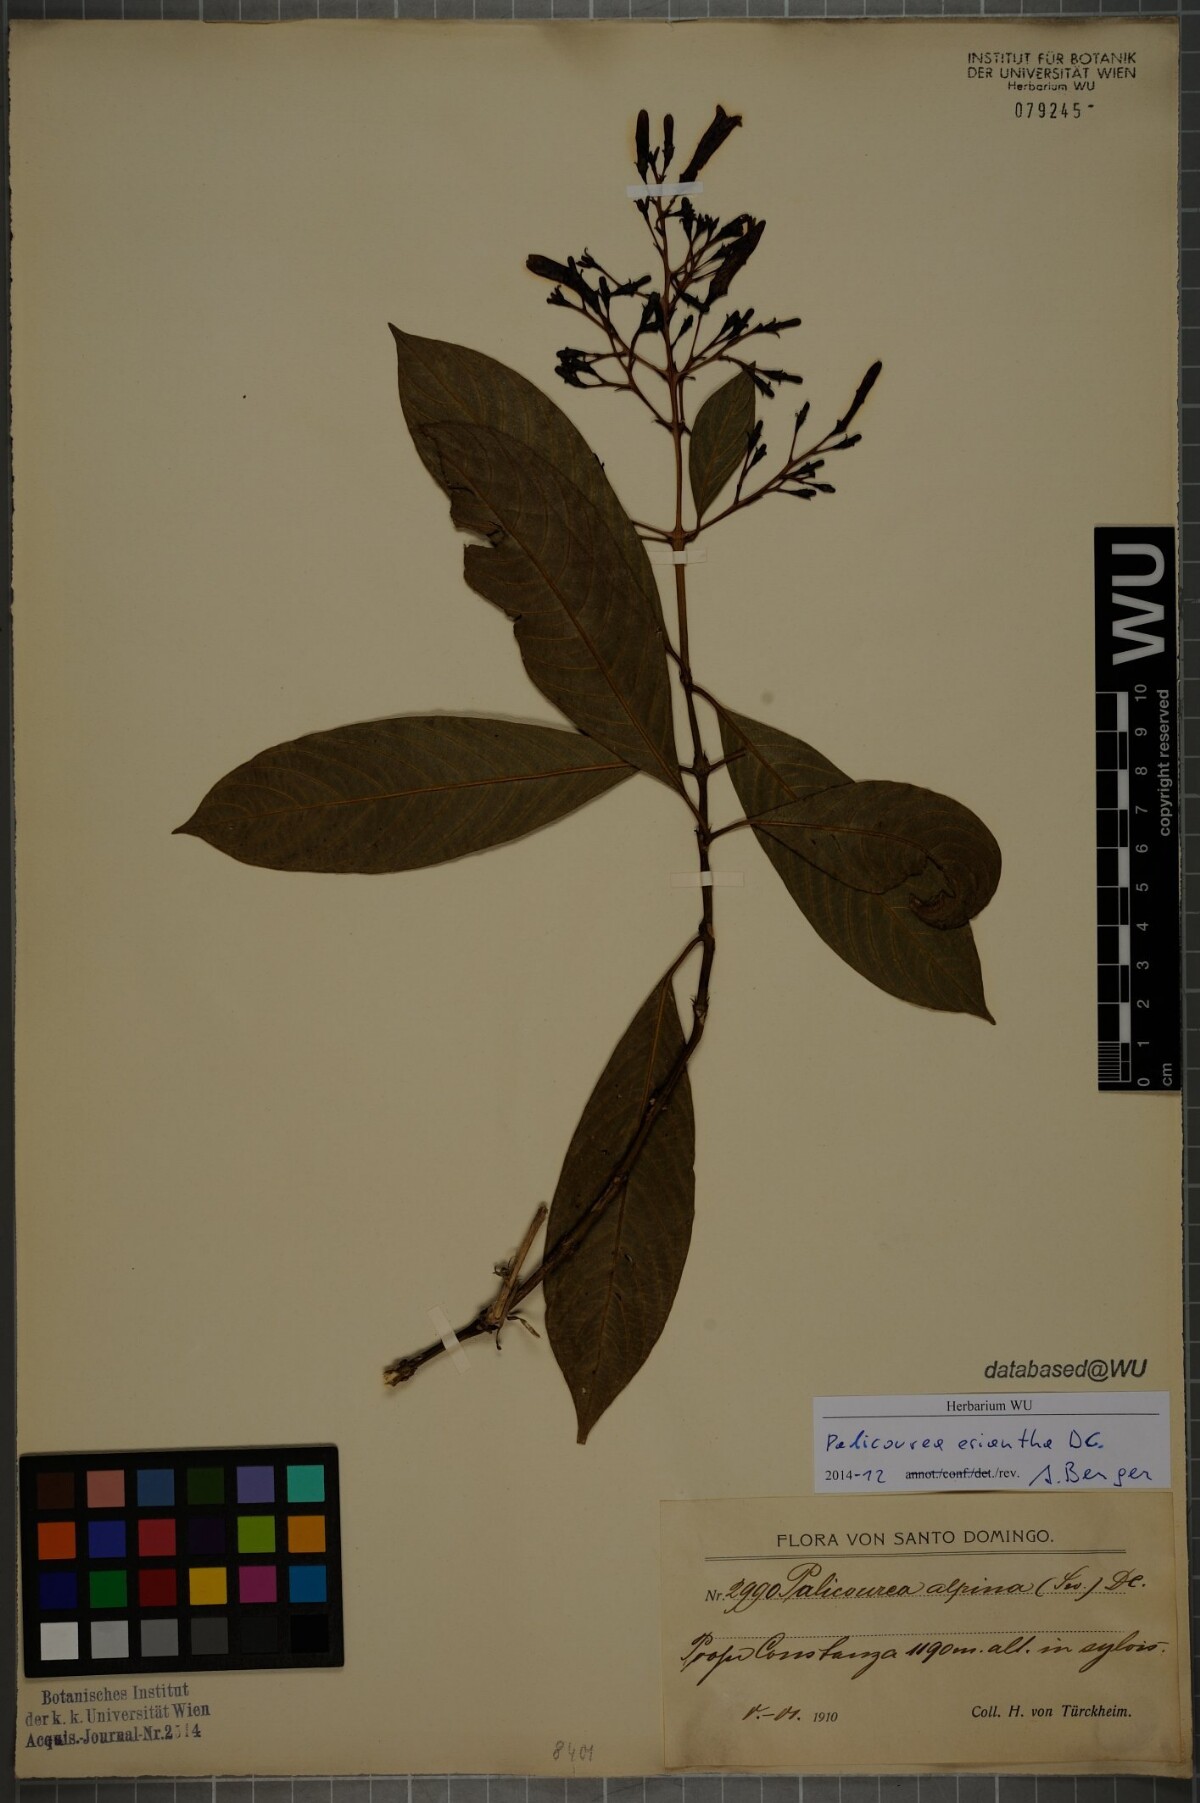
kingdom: Plantae
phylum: Tracheophyta
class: Magnoliopsida
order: Gentianales
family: Rubiaceae
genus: Palicourea
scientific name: Palicourea eriantha
